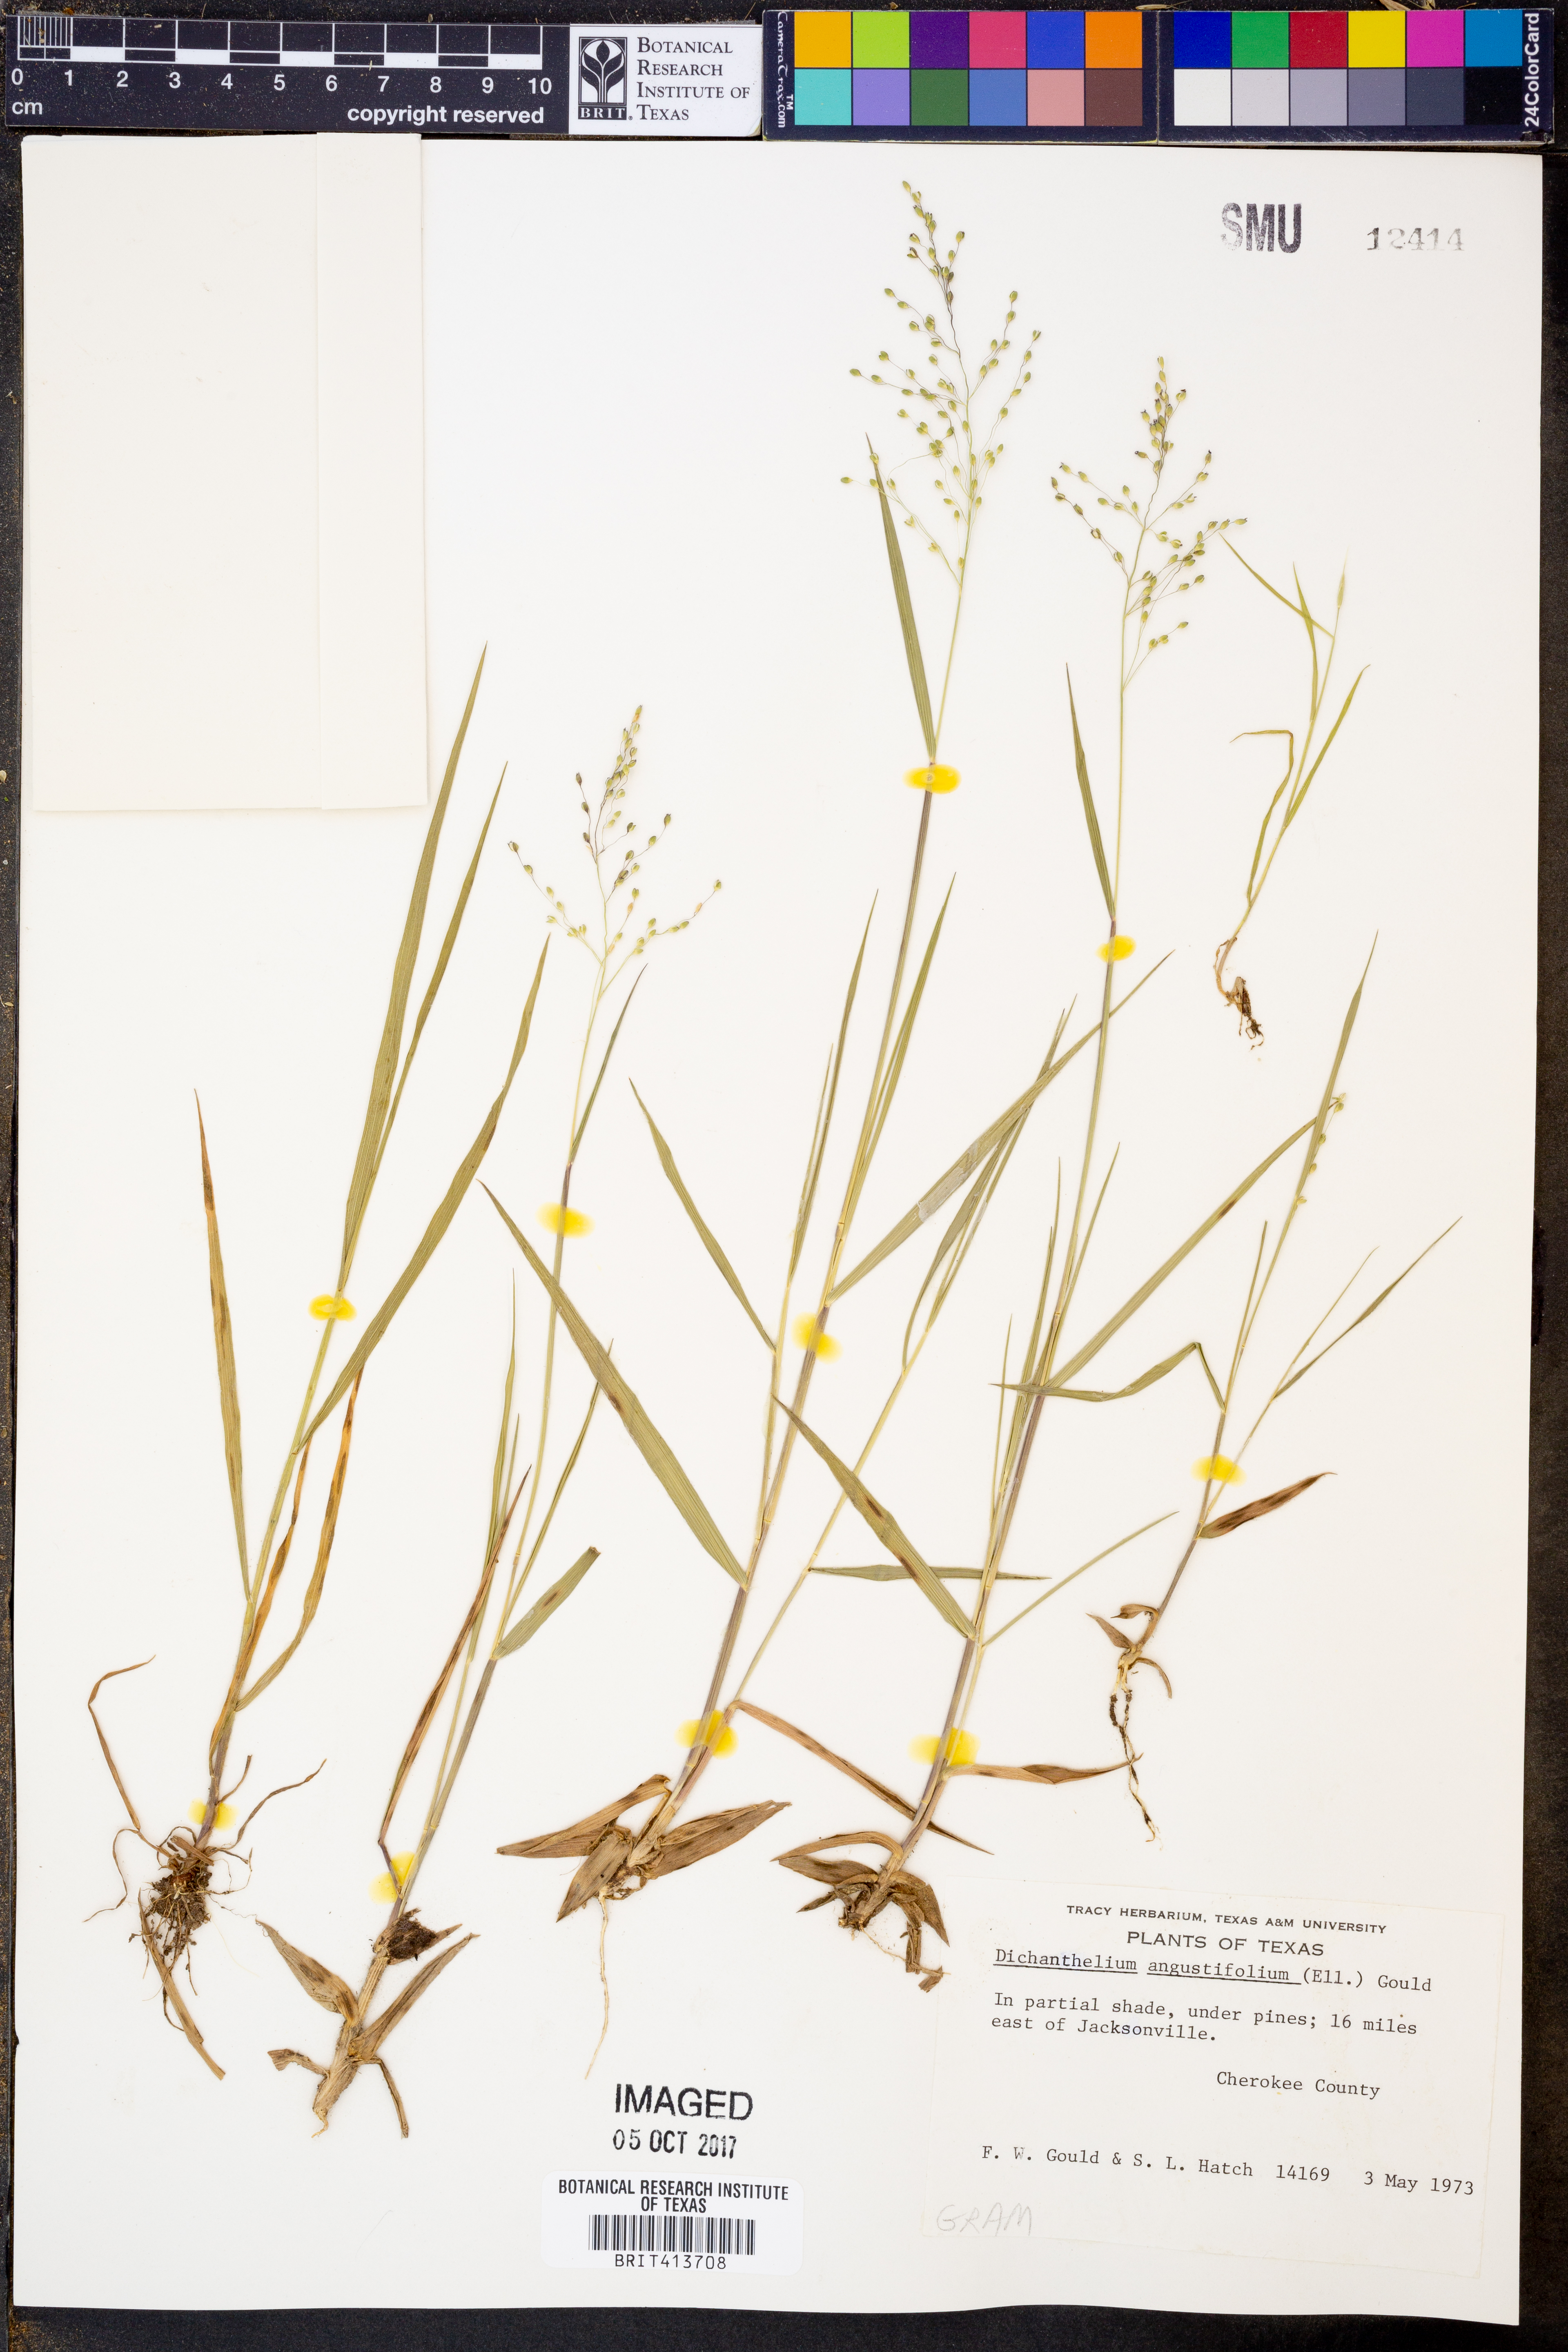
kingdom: Plantae
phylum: Tracheophyta
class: Liliopsida
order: Poales
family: Poaceae
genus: Dichanthelium
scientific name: Dichanthelium angustifolium
